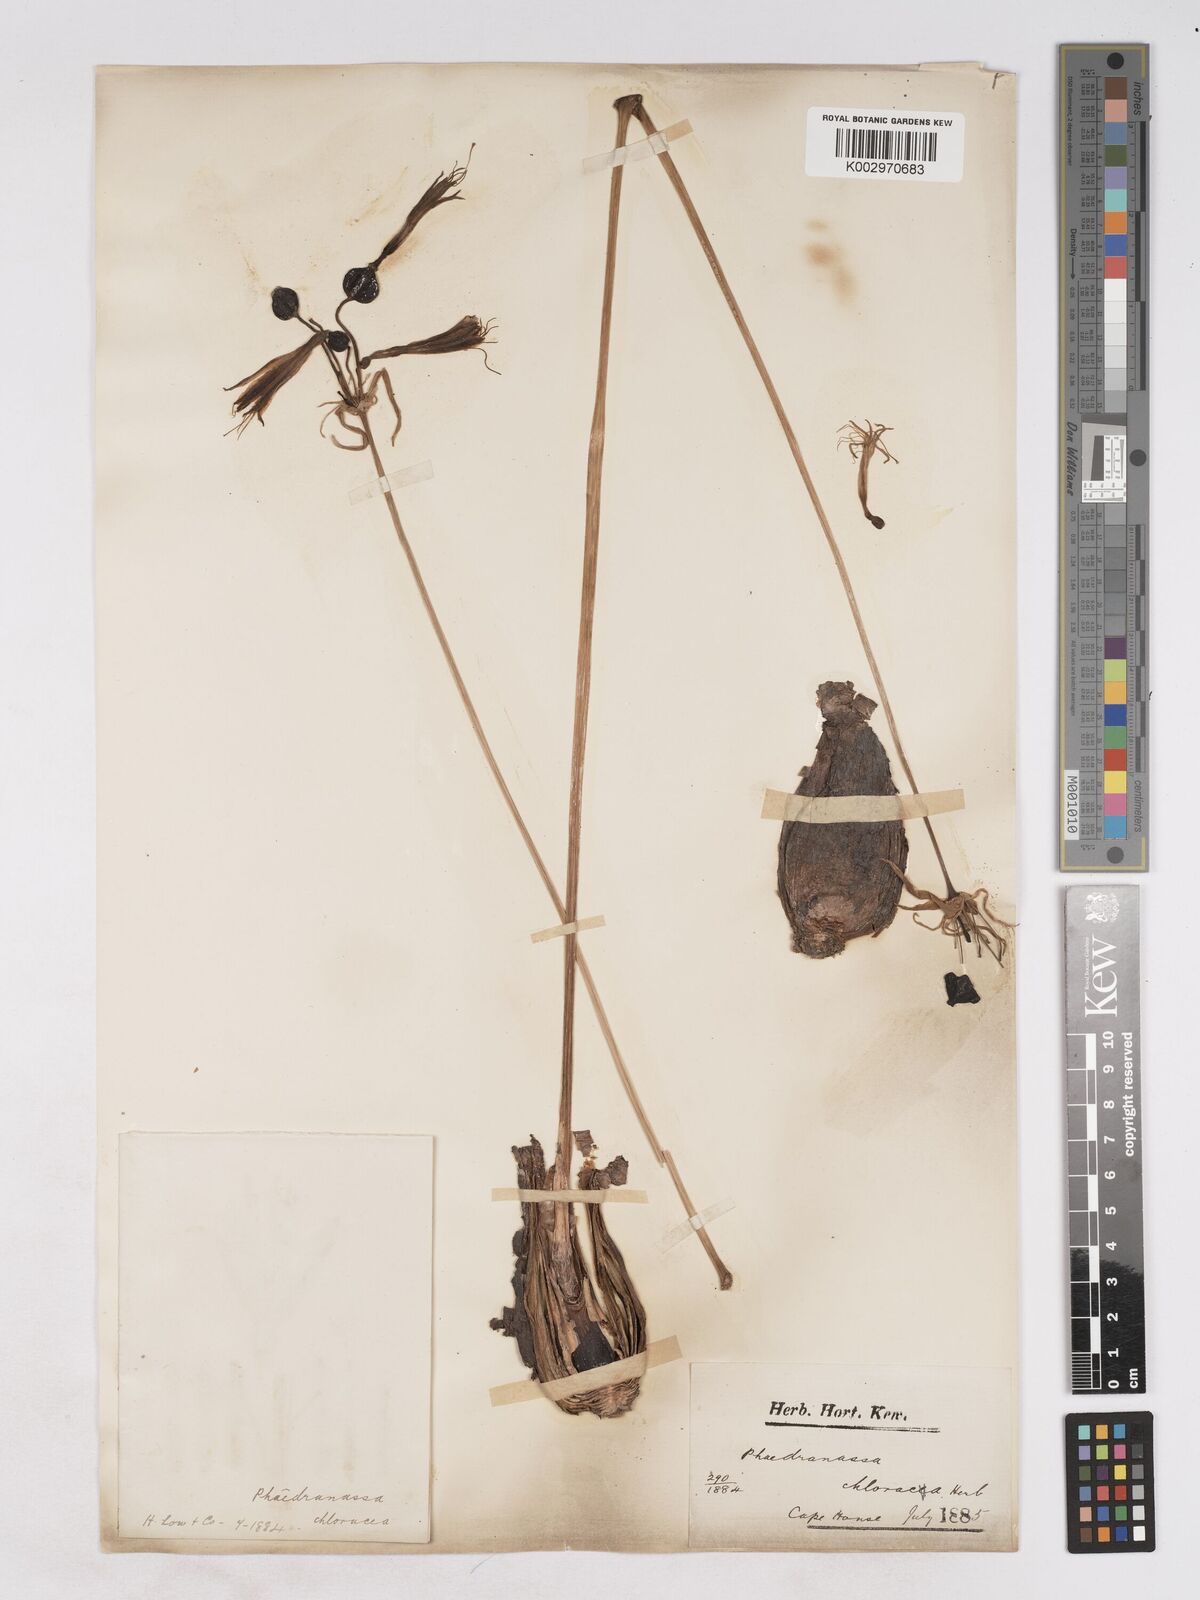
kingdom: Plantae
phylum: Tracheophyta
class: Liliopsida
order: Asparagales
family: Amaryllidaceae
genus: Phaedranassa
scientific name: Phaedranassa dubia
